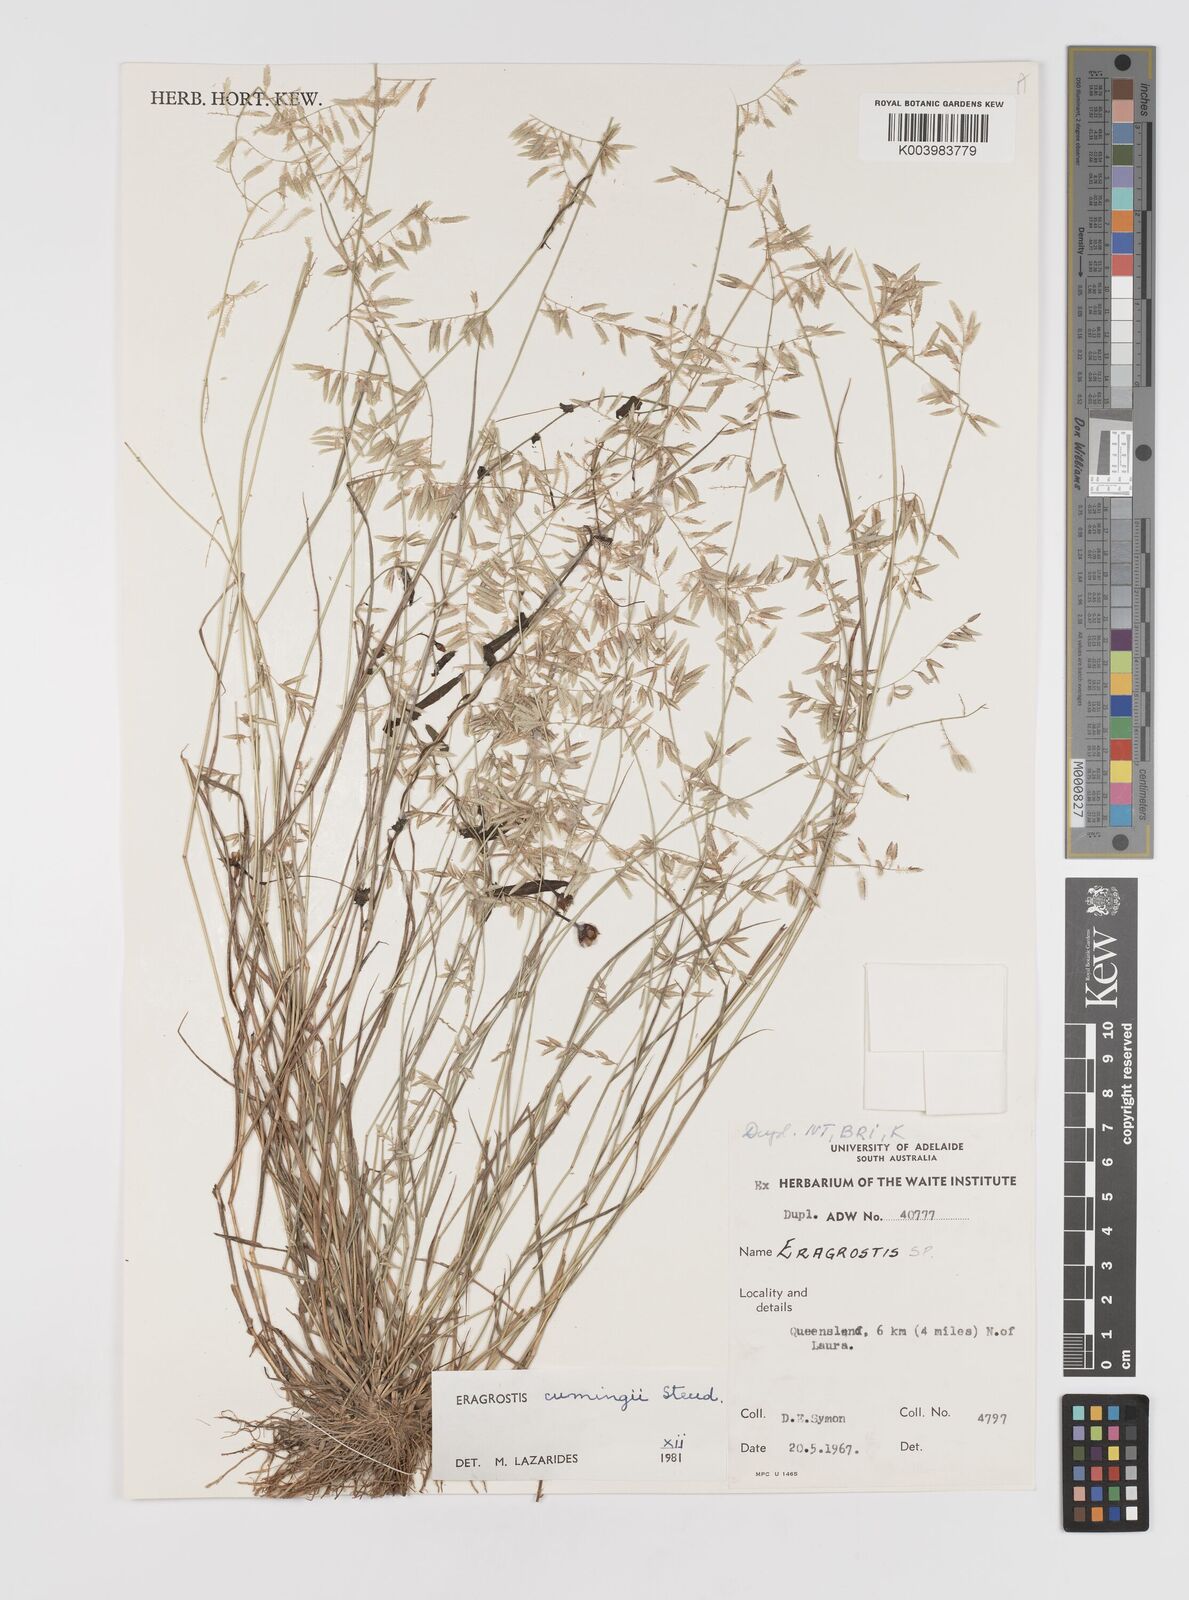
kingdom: Plantae
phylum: Tracheophyta
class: Liliopsida
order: Poales
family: Poaceae
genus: Eragrostis
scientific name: Eragrostis cumingii
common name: Cuming's lovegrass
